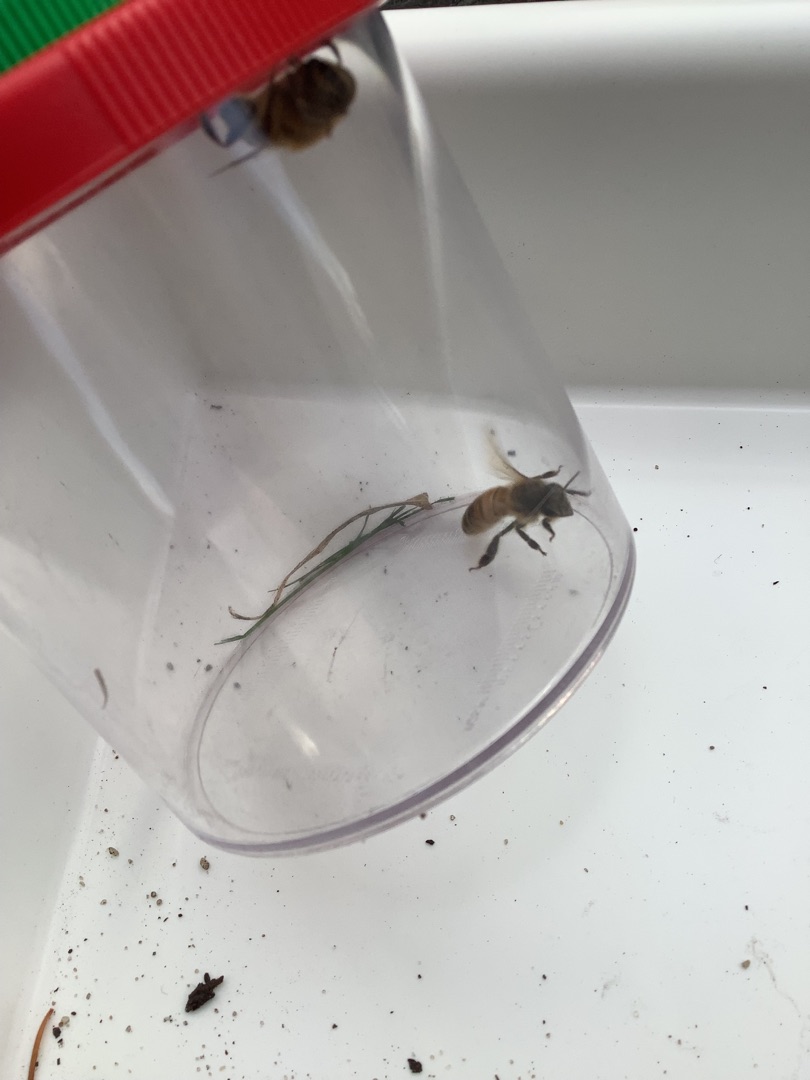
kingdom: Animalia
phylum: Arthropoda
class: Insecta
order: Hymenoptera
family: Apidae
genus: Apis
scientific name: Apis mellifera
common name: Honningbi
